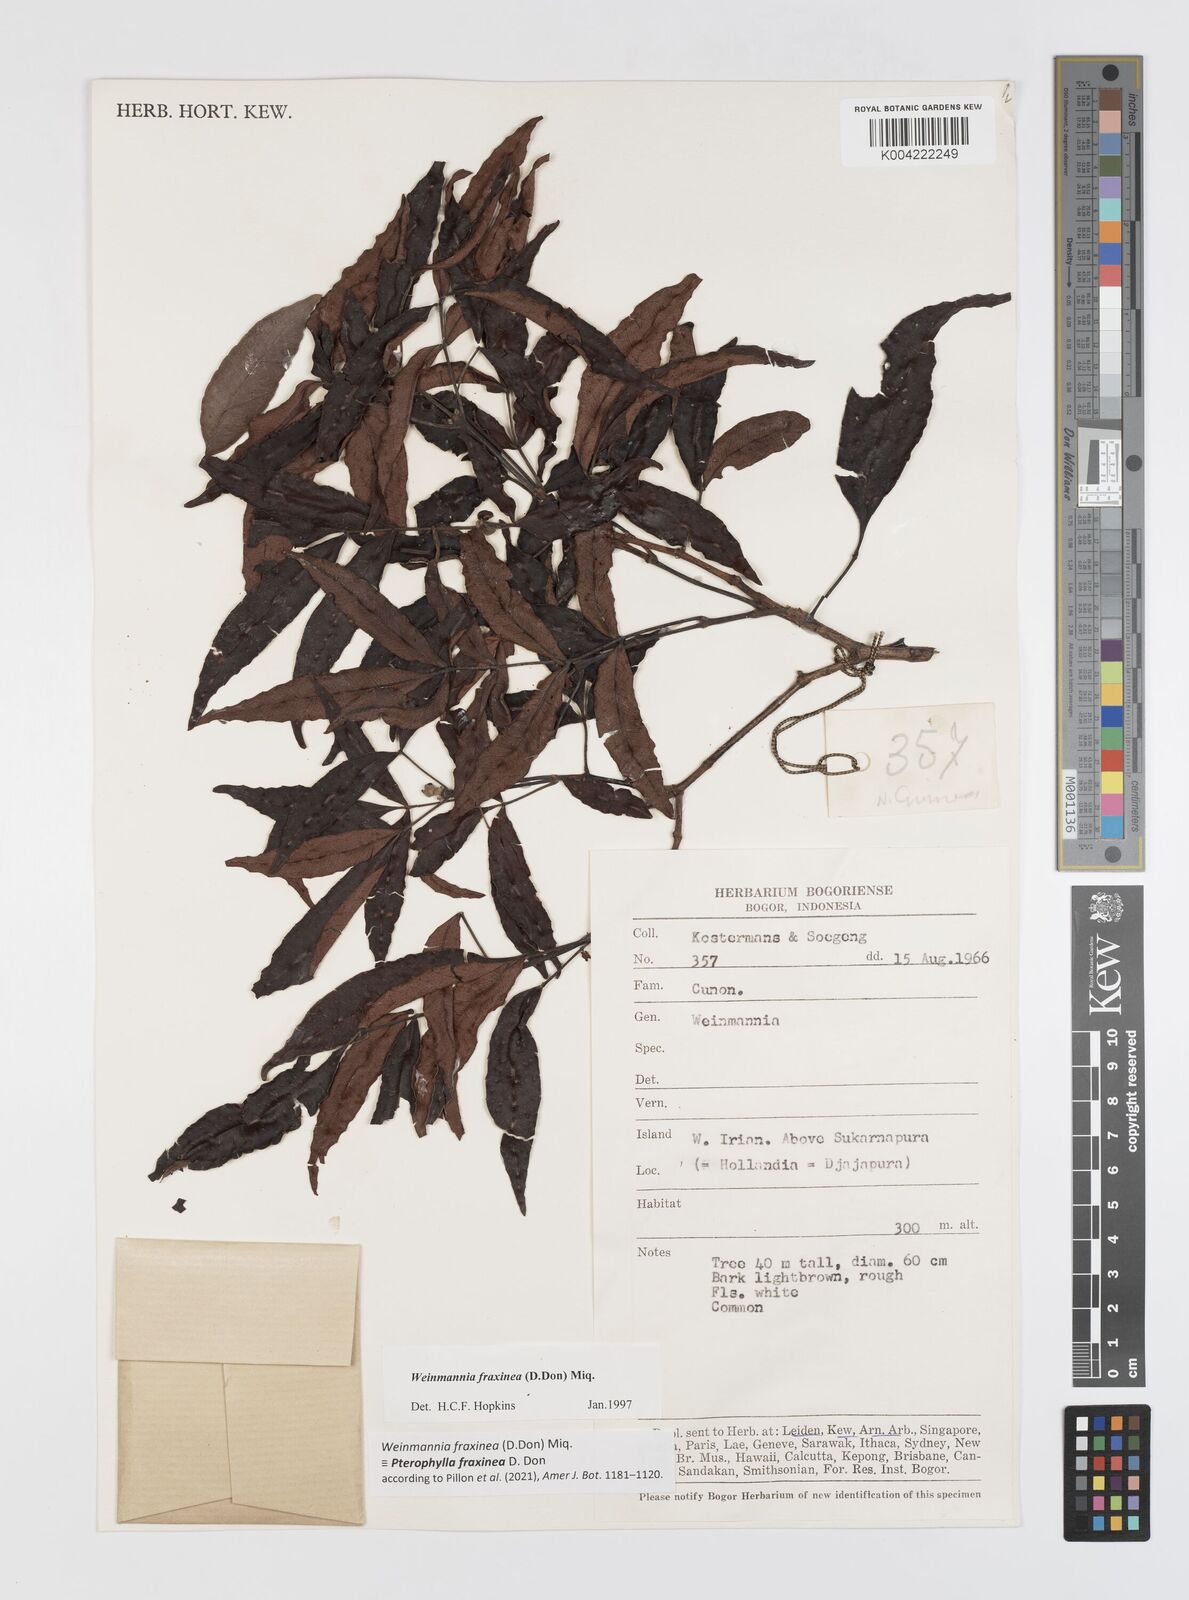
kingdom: Plantae
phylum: Tracheophyta
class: Magnoliopsida
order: Oxalidales
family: Cunoniaceae
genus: Pterophylla
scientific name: Pterophylla fraxinea
